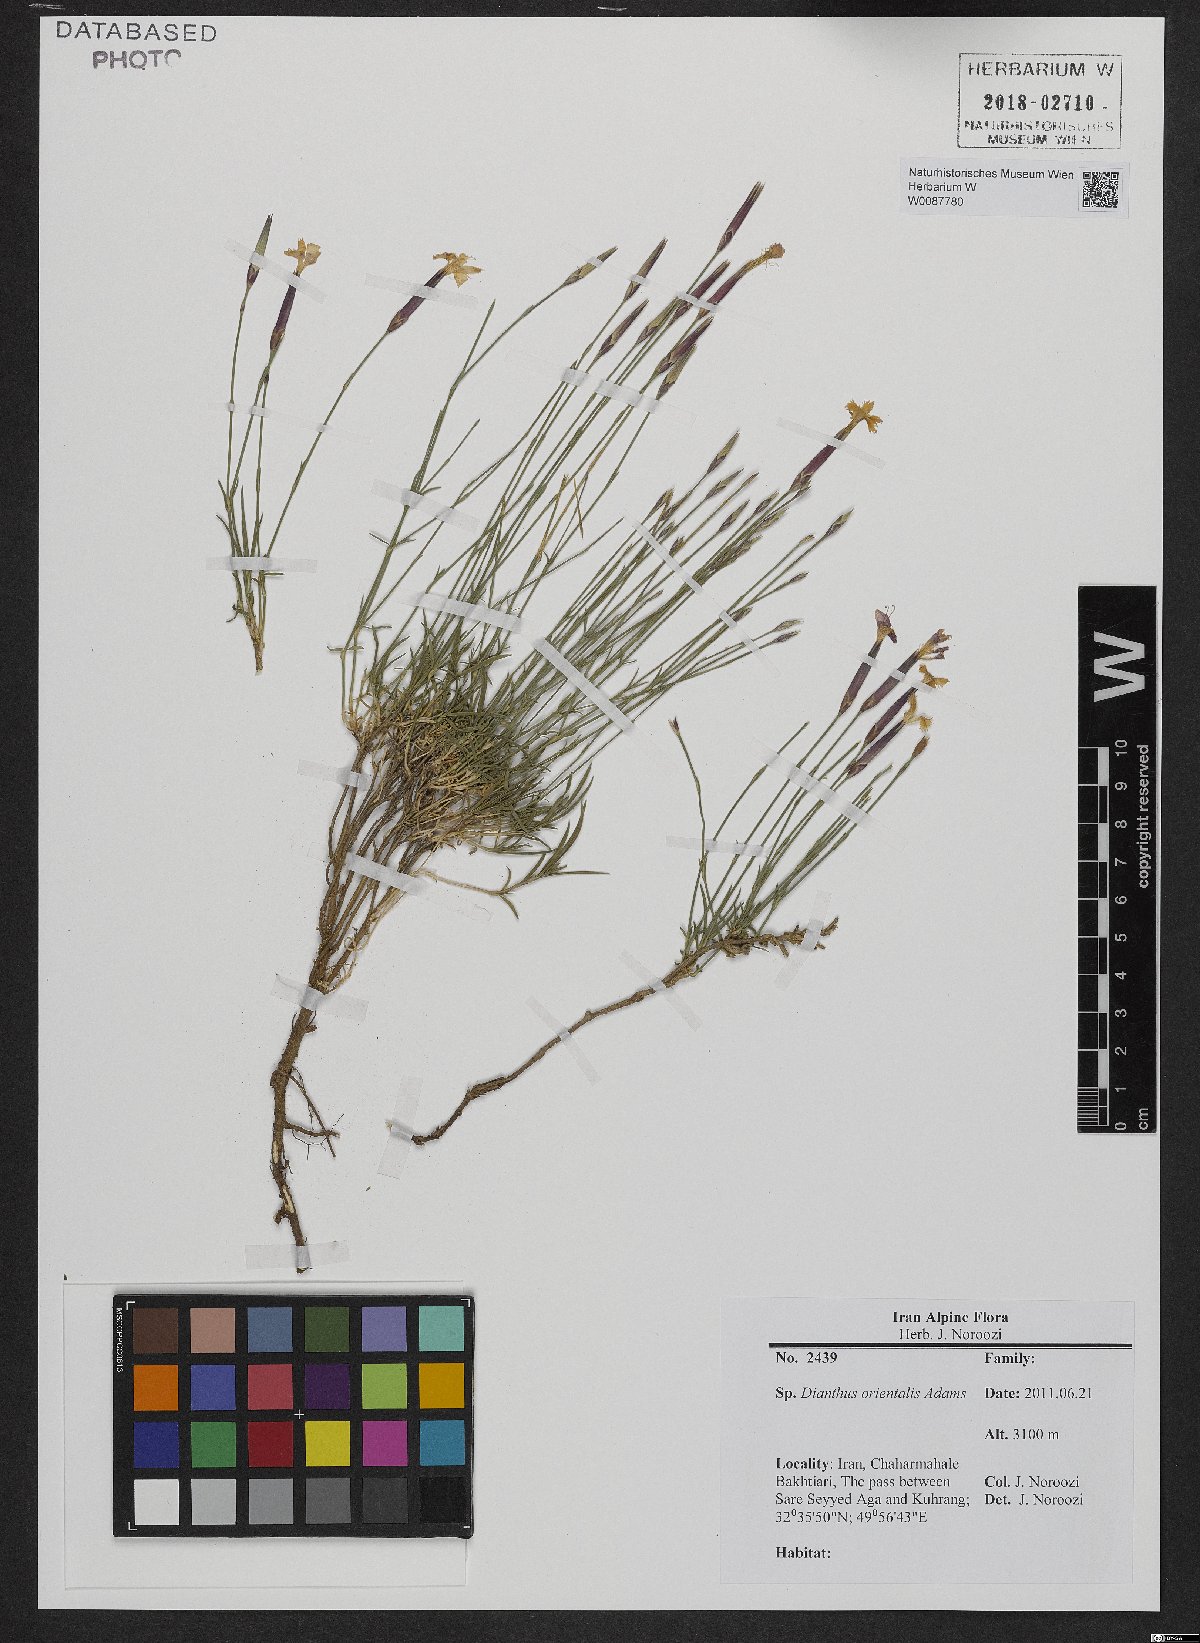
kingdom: Plantae
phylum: Tracheophyta
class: Magnoliopsida
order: Caryophyllales
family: Caryophyllaceae
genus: Dianthus
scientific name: Dianthus orientalis
